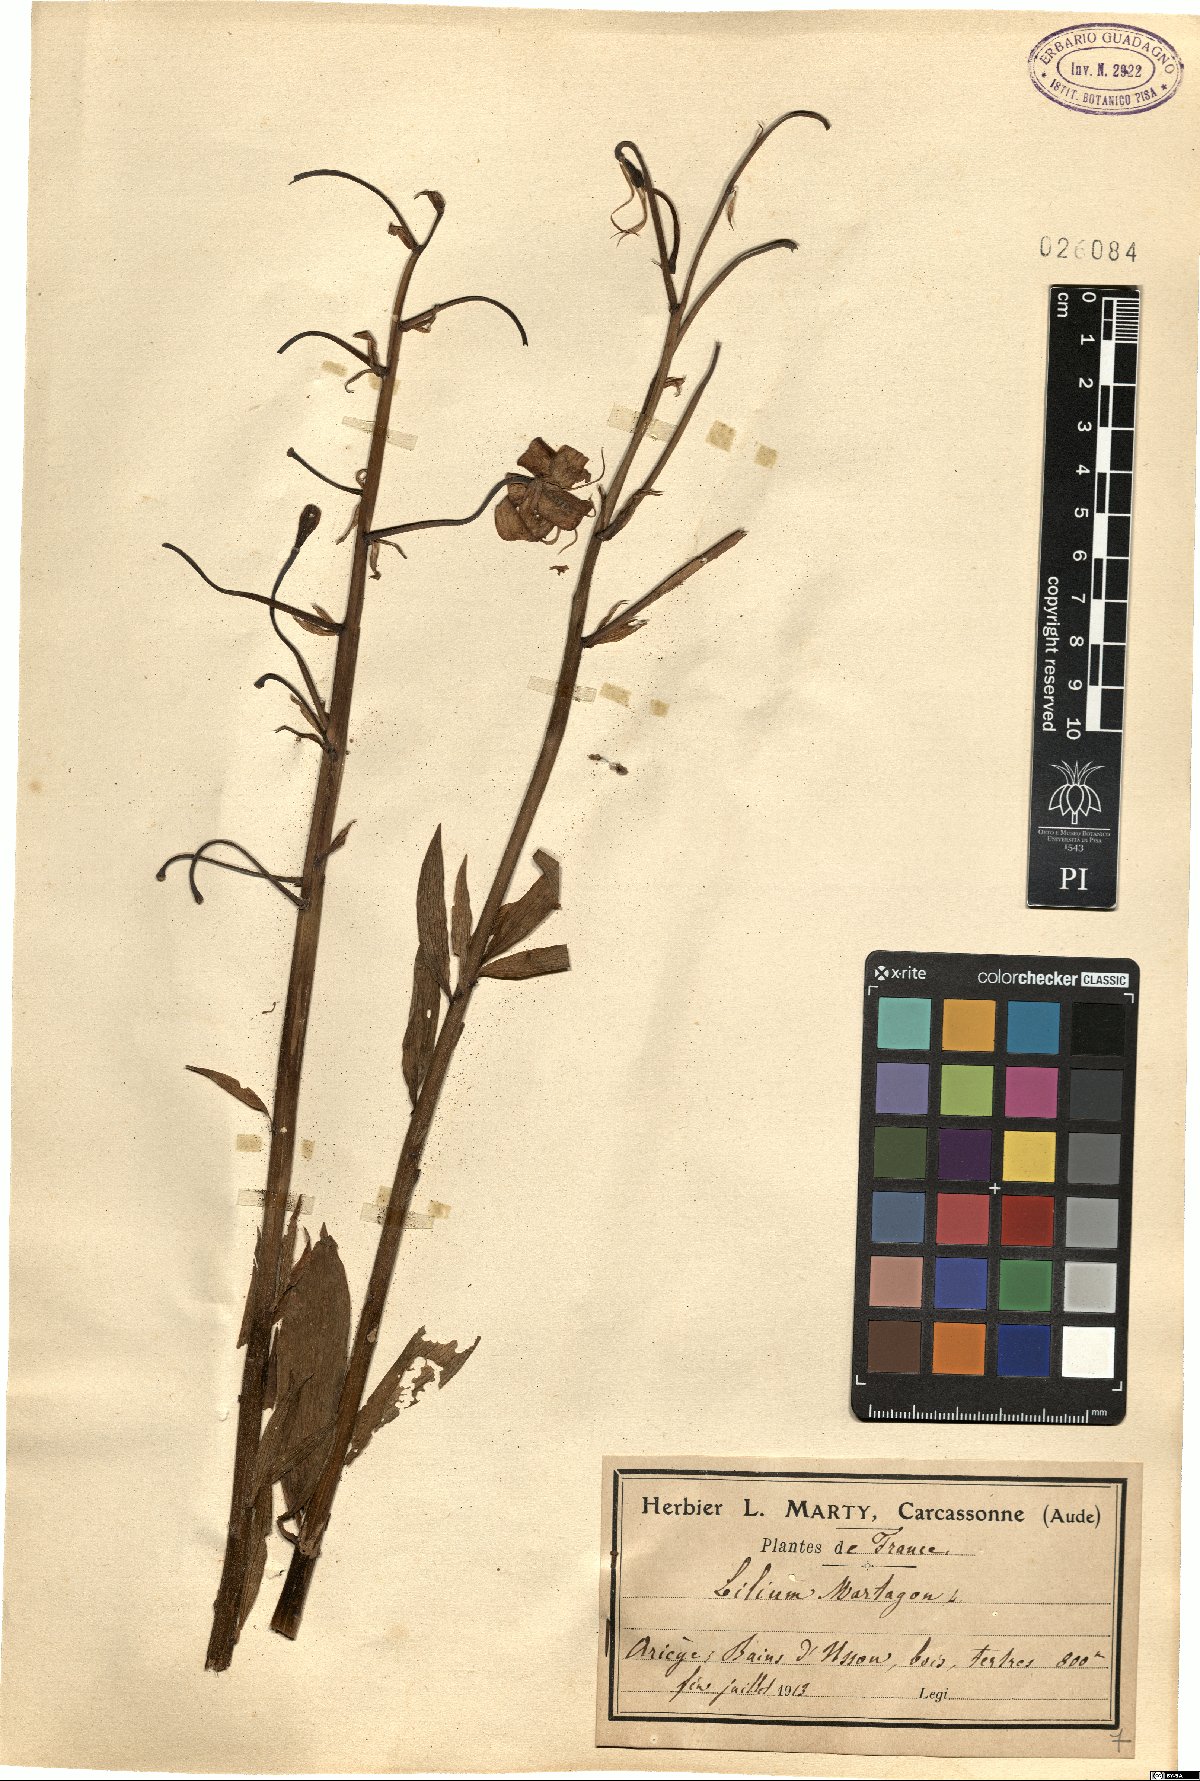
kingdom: Plantae
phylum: Tracheophyta
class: Liliopsida
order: Liliales
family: Liliaceae
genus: Lilium
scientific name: Lilium martagon
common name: Martagon lily
